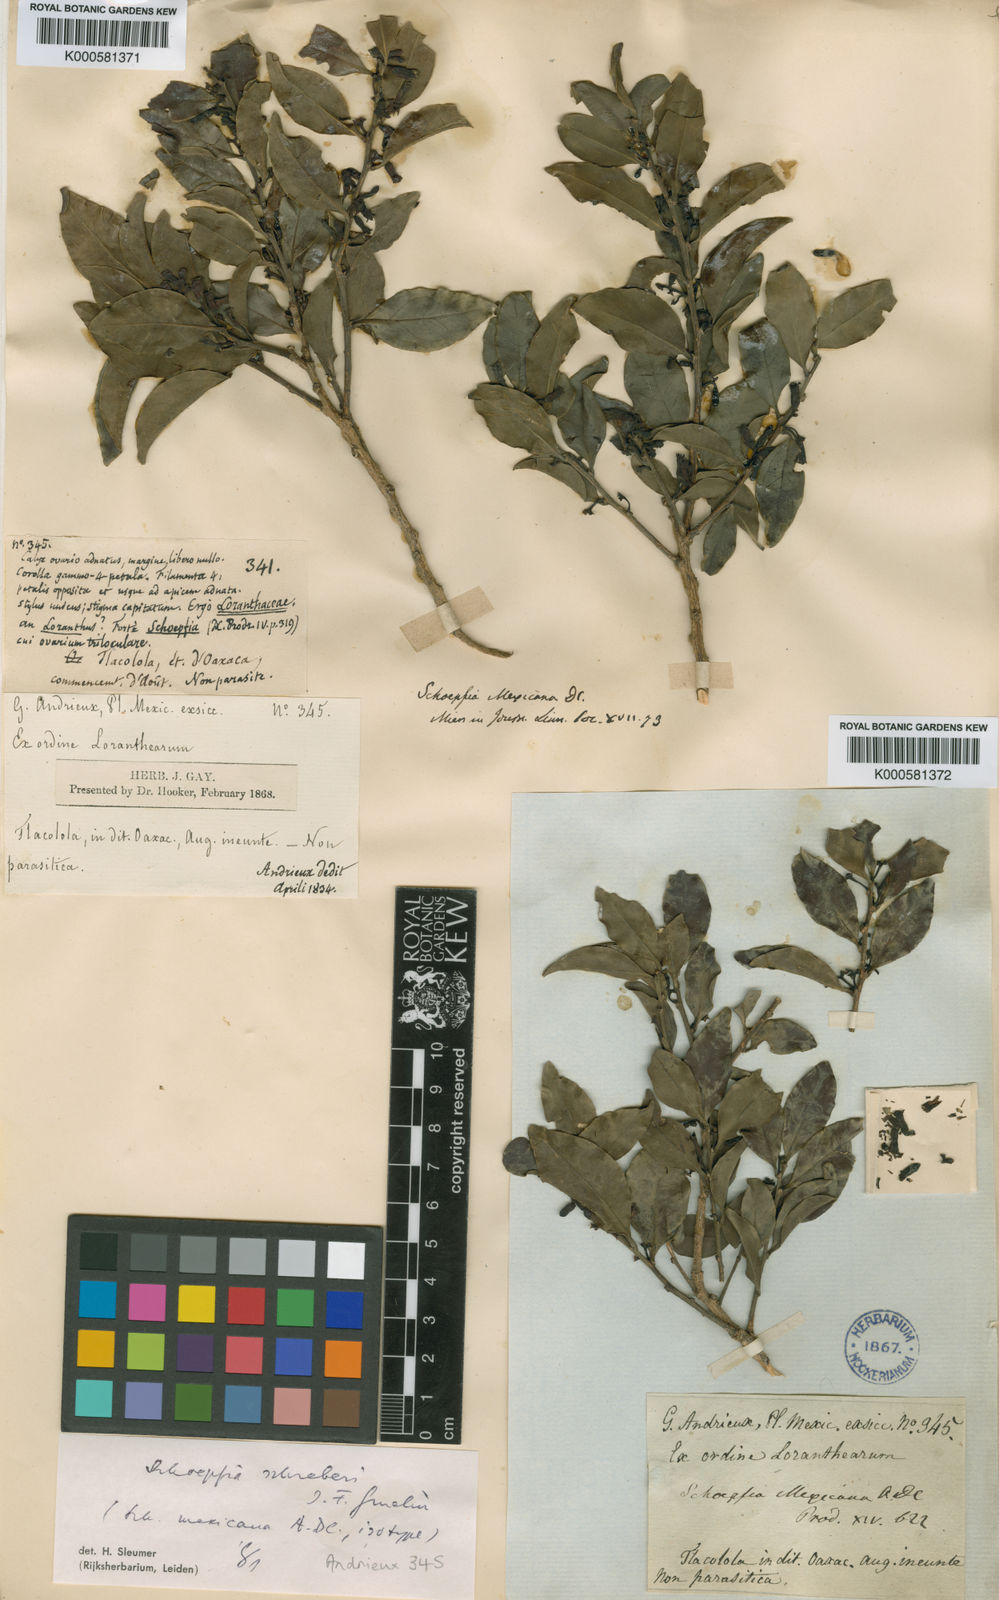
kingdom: Plantae
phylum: Tracheophyta
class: Magnoliopsida
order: Santalales
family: Schoepfiaceae
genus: Schoepfia
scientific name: Schoepfia schreberi
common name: Gulf graytwig
